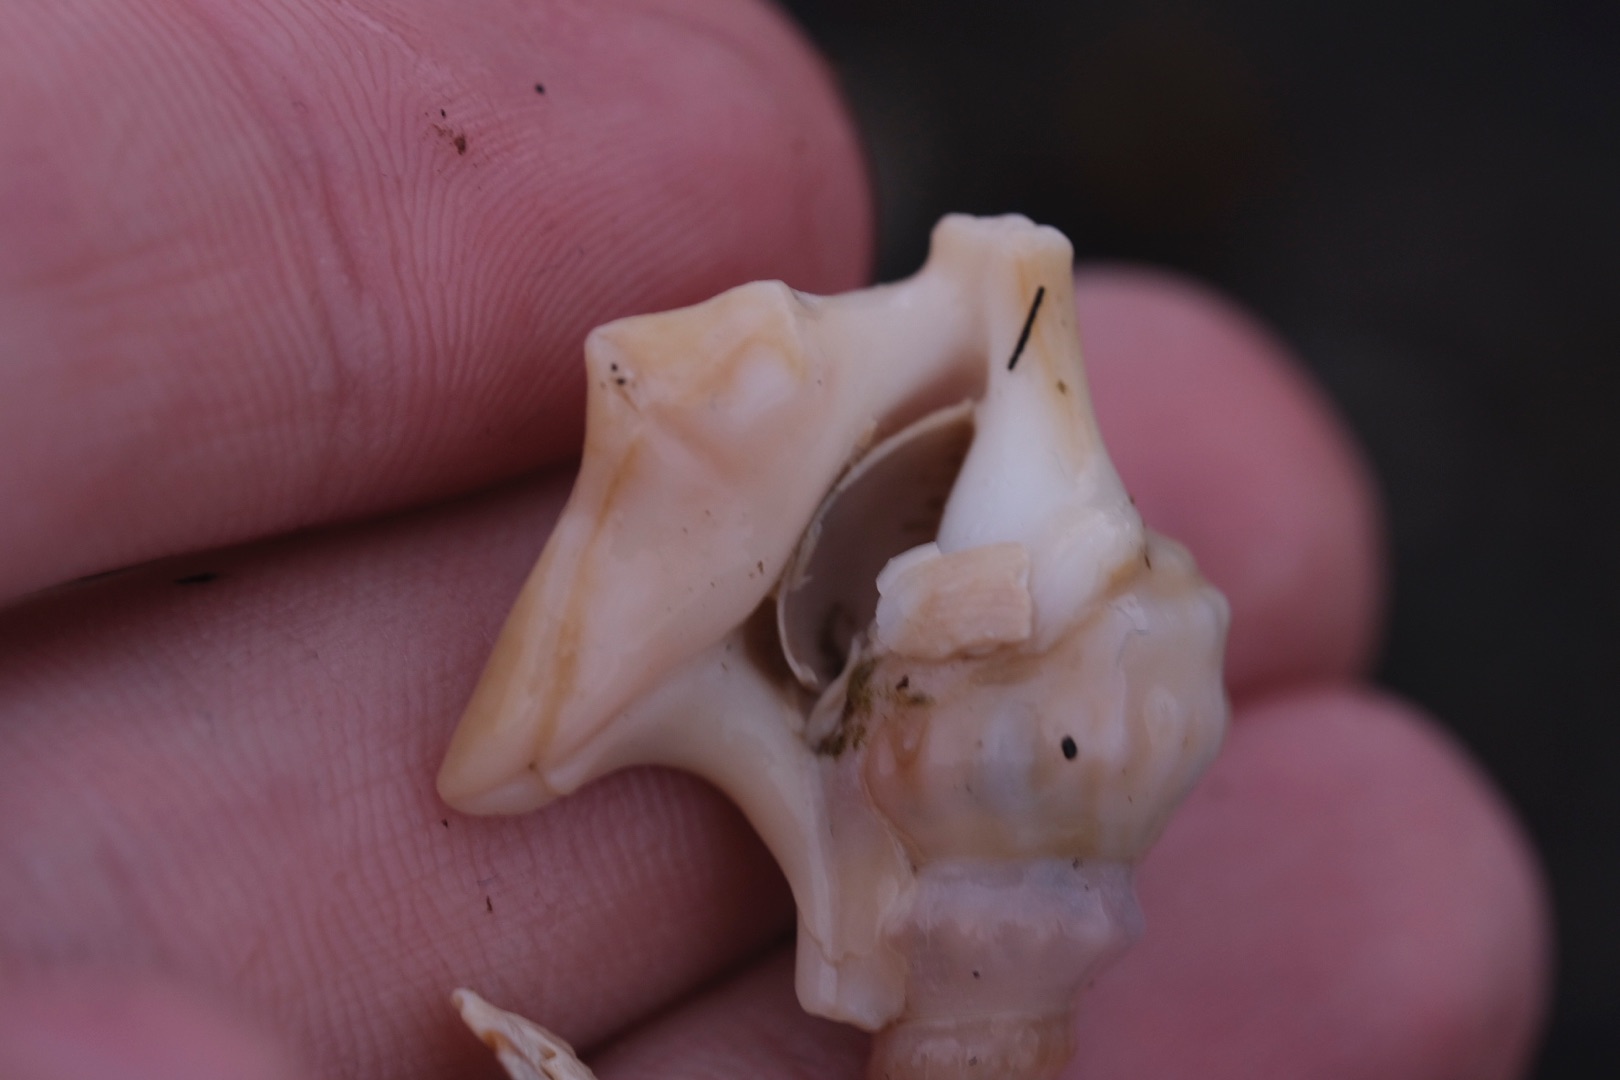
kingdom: Animalia
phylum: Mollusca
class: Gastropoda
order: Littorinimorpha
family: Aporrhaidae
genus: Aporrhais
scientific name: Aporrhais pespelecani
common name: Pelikanfod
